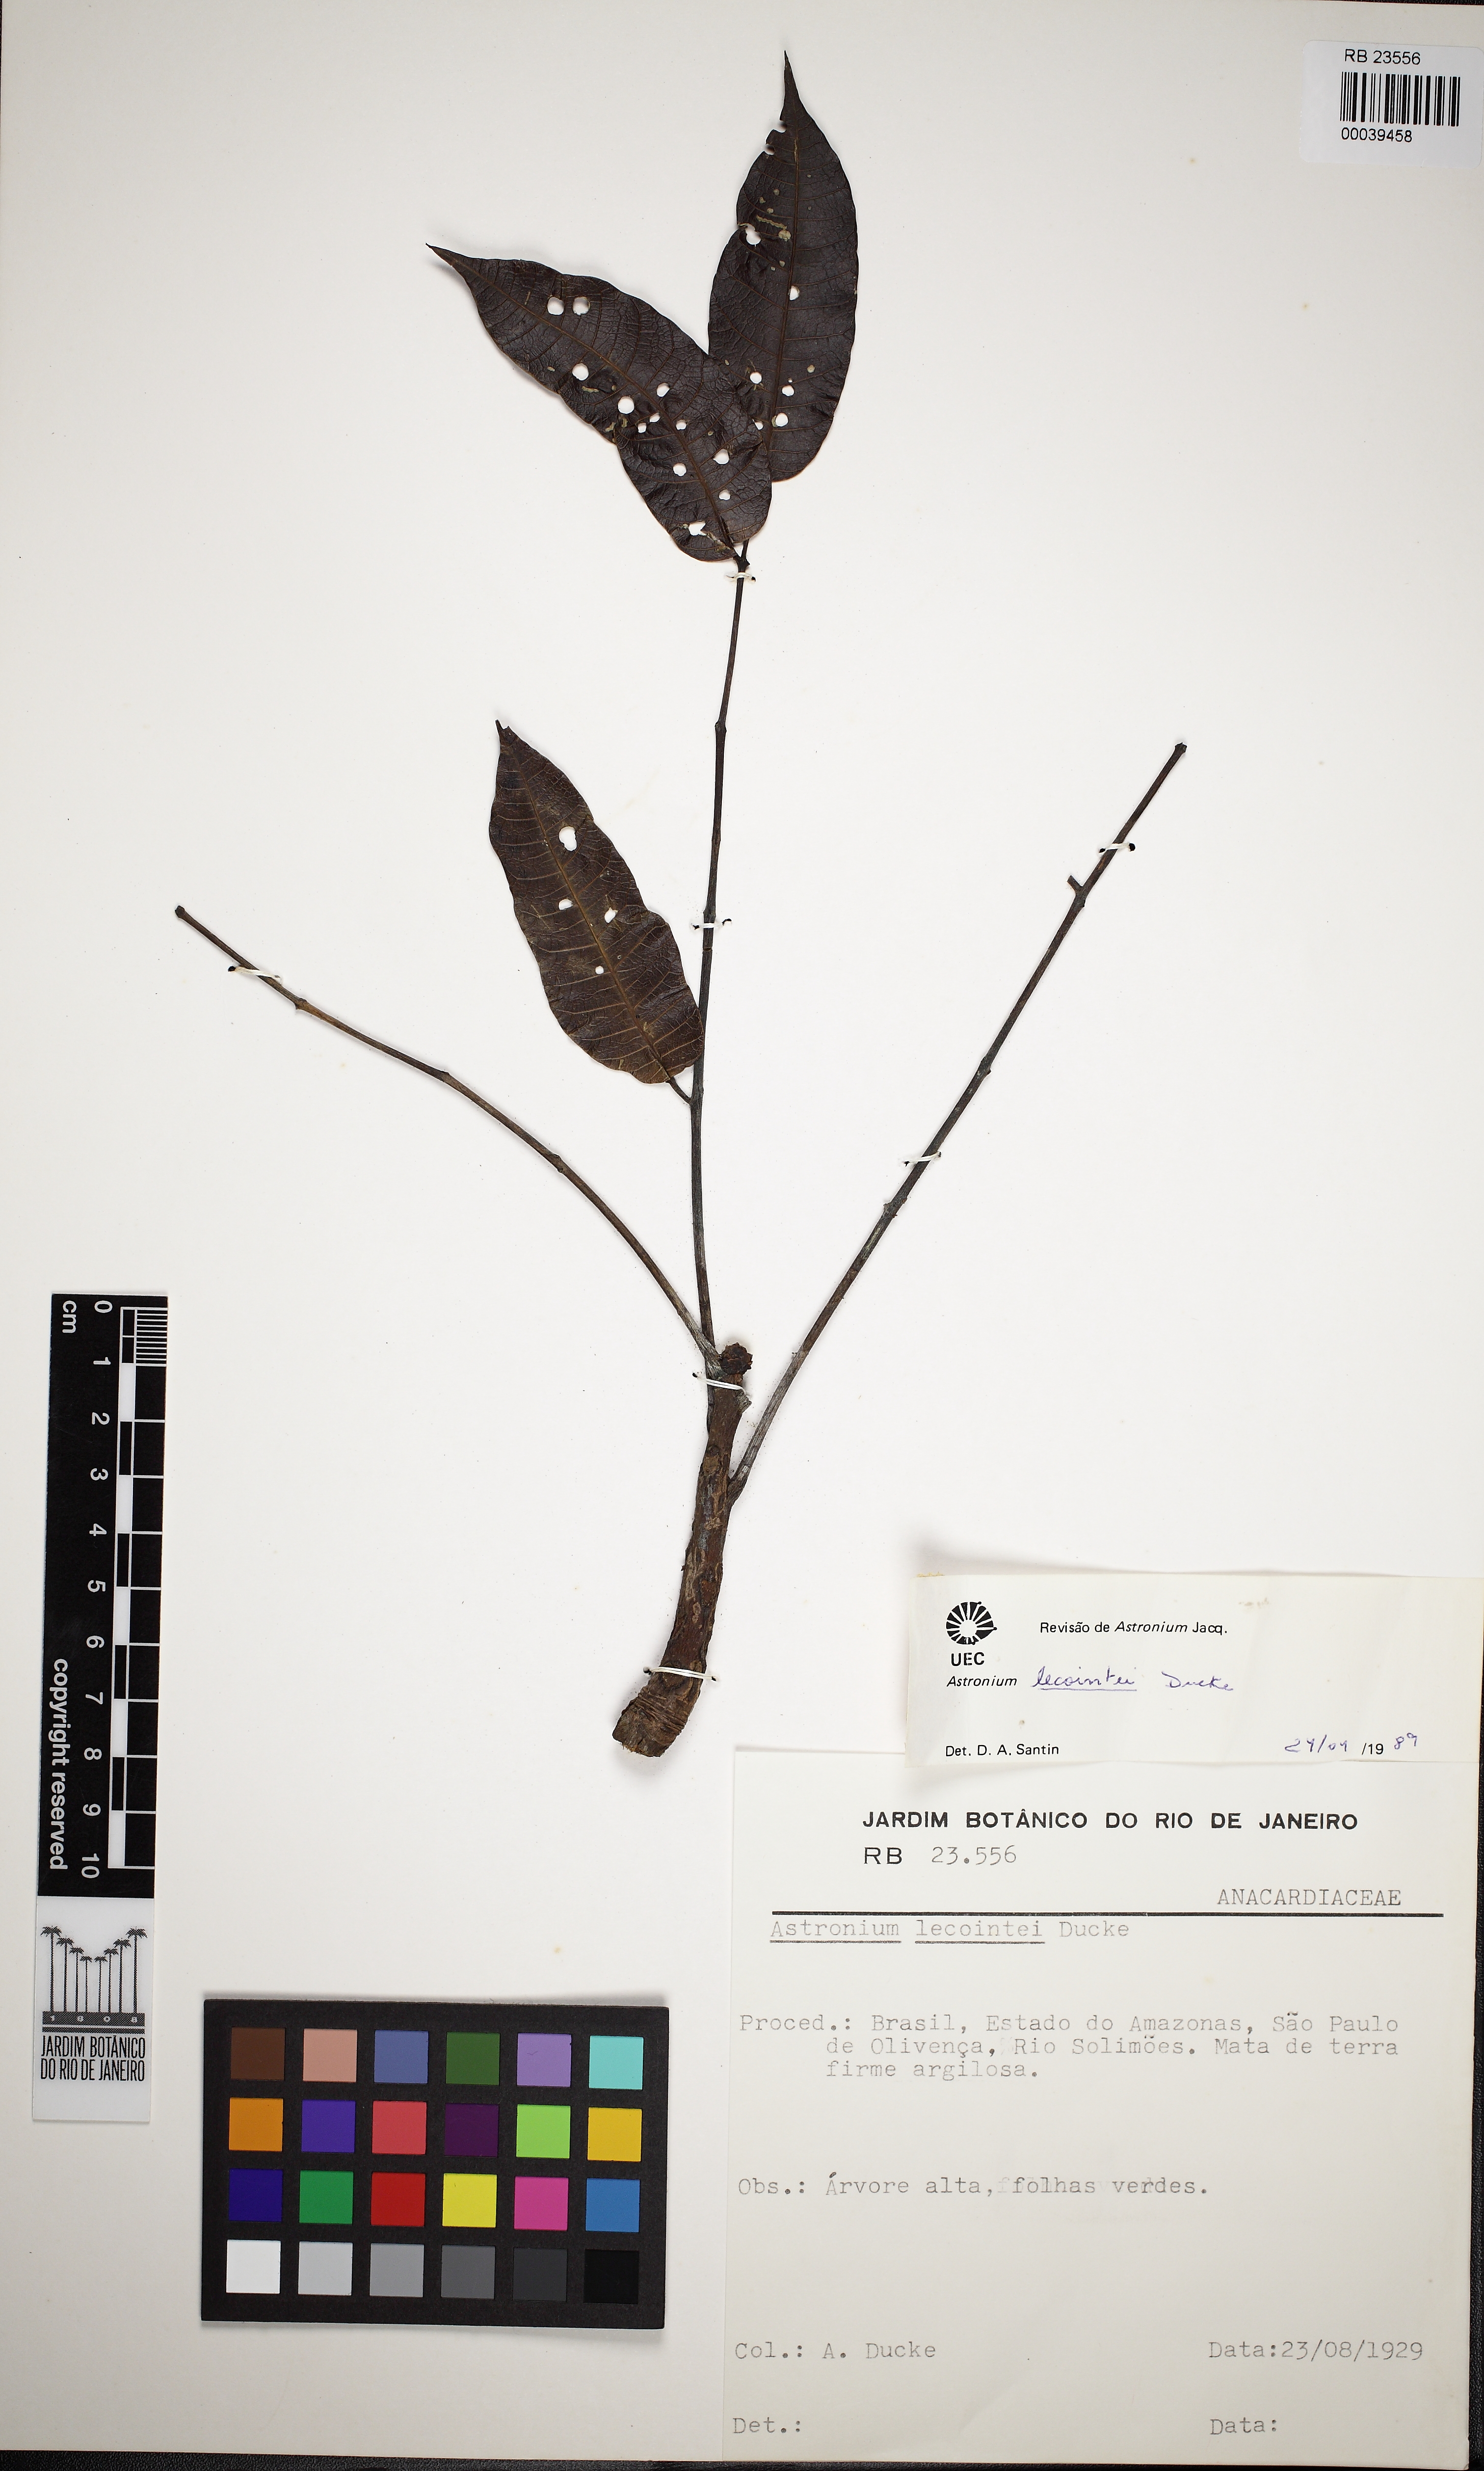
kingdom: Plantae
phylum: Tracheophyta
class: Magnoliopsida
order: Sapindales
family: Anacardiaceae
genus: Astronium
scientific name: Astronium lecointei
